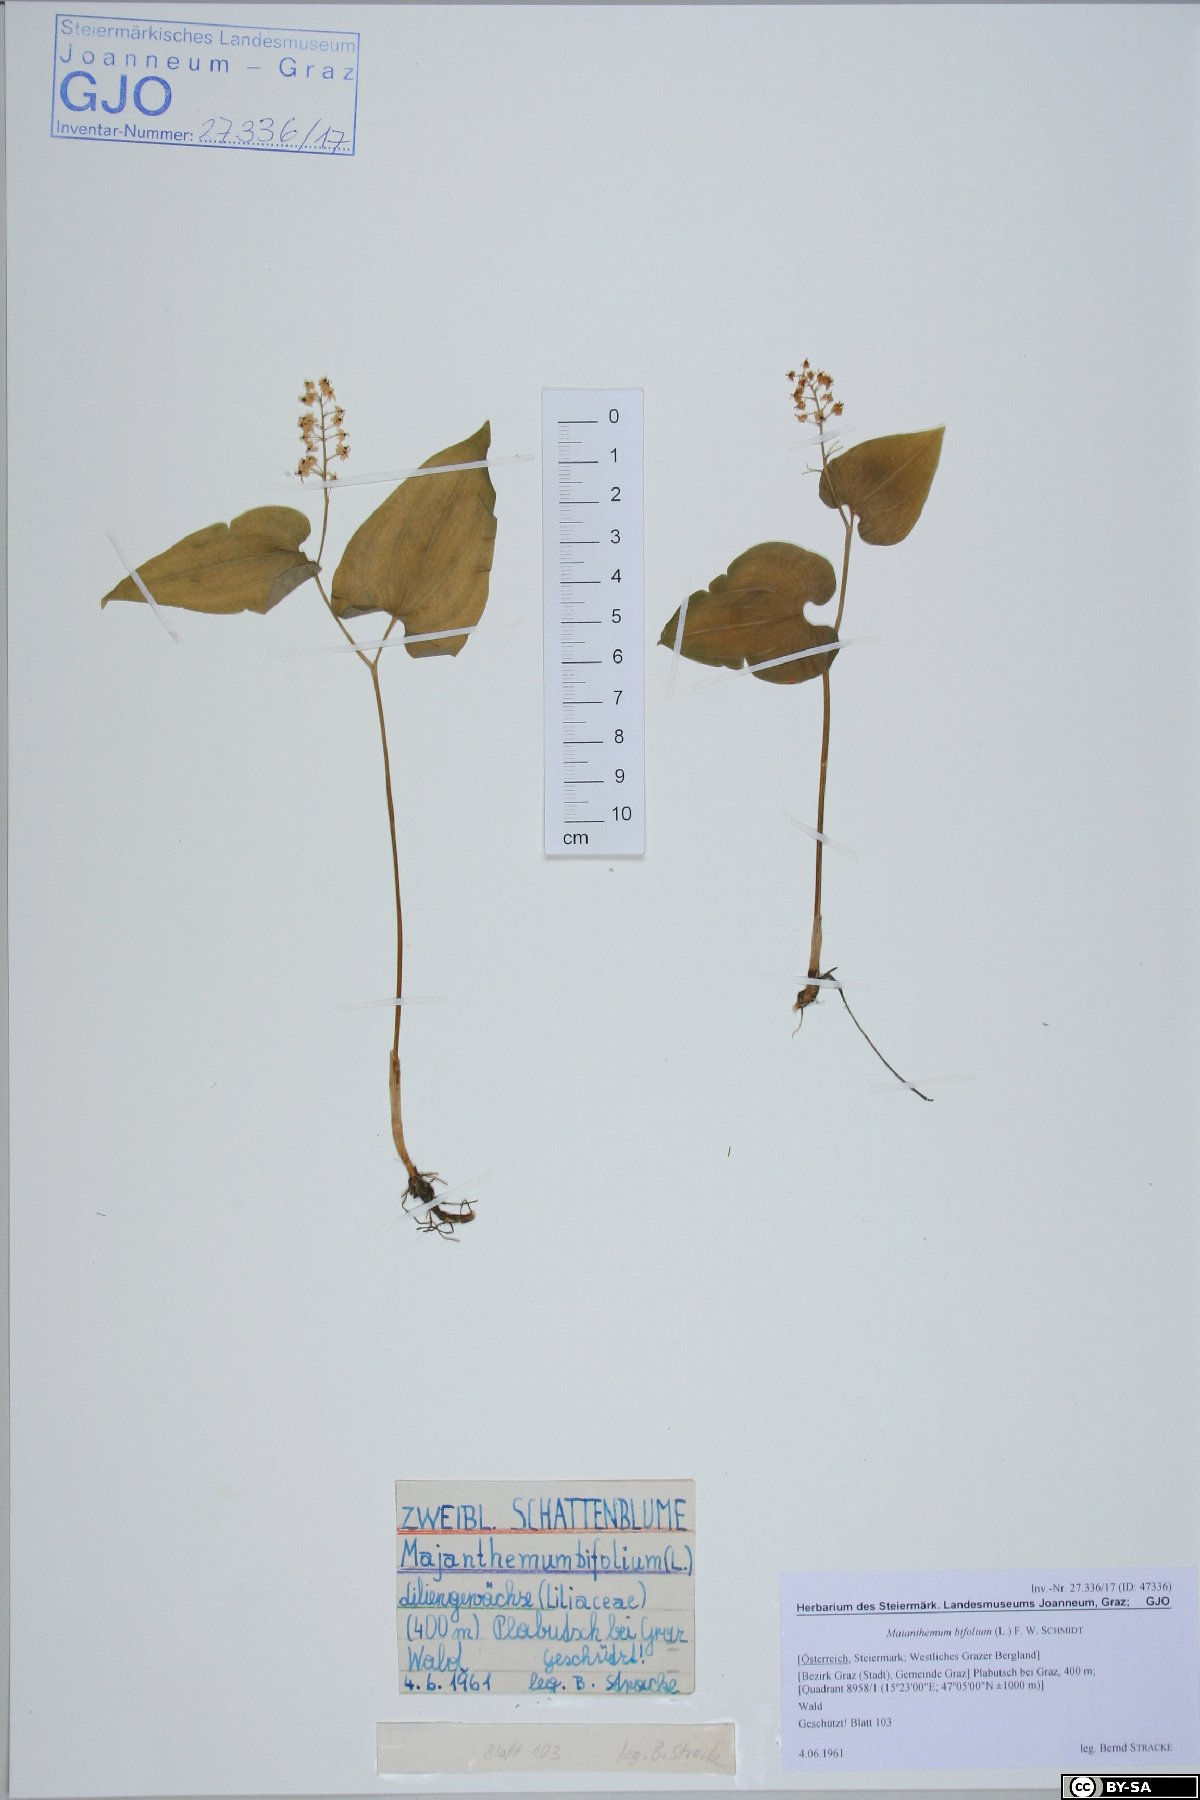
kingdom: Plantae
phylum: Tracheophyta
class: Liliopsida
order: Asparagales
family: Asparagaceae
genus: Maianthemum
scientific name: Maianthemum bifolium
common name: May lily
